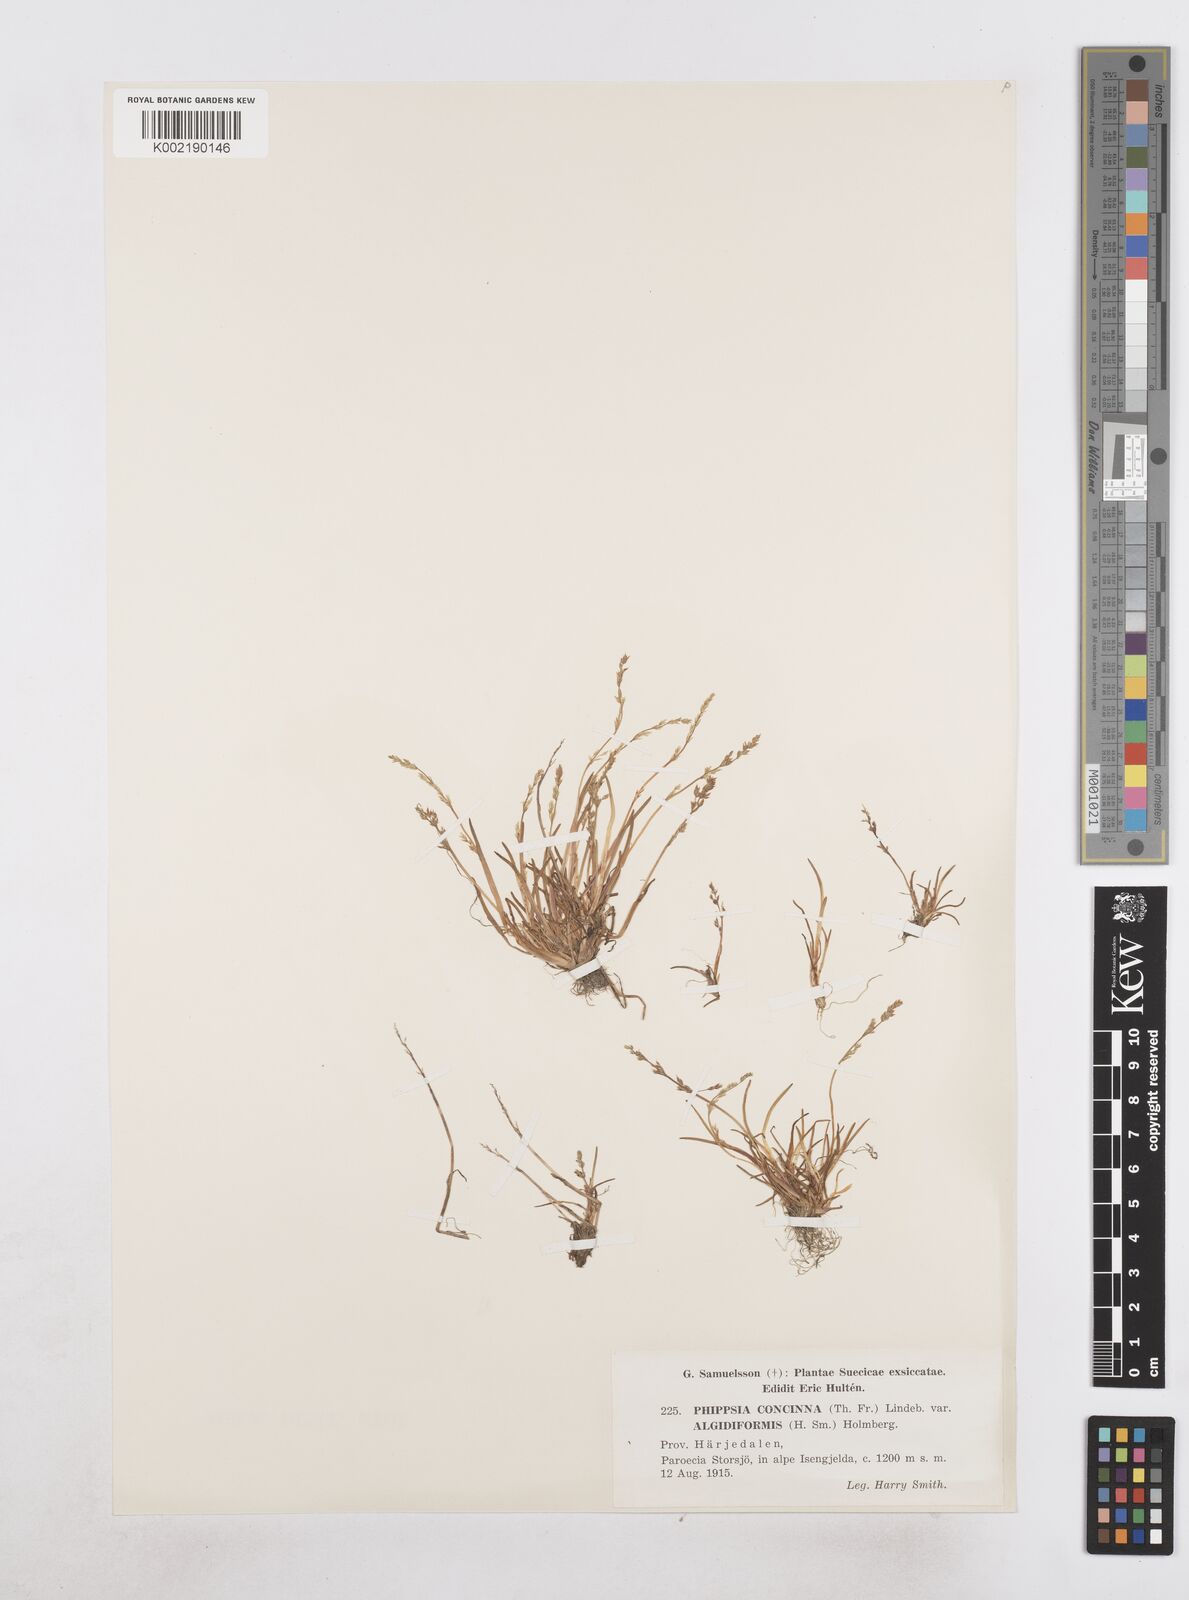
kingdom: Plantae
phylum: Tracheophyta
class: Liliopsida
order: Poales
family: Poaceae
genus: Phippsia
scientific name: Phippsia concinna
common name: Snowgrass
